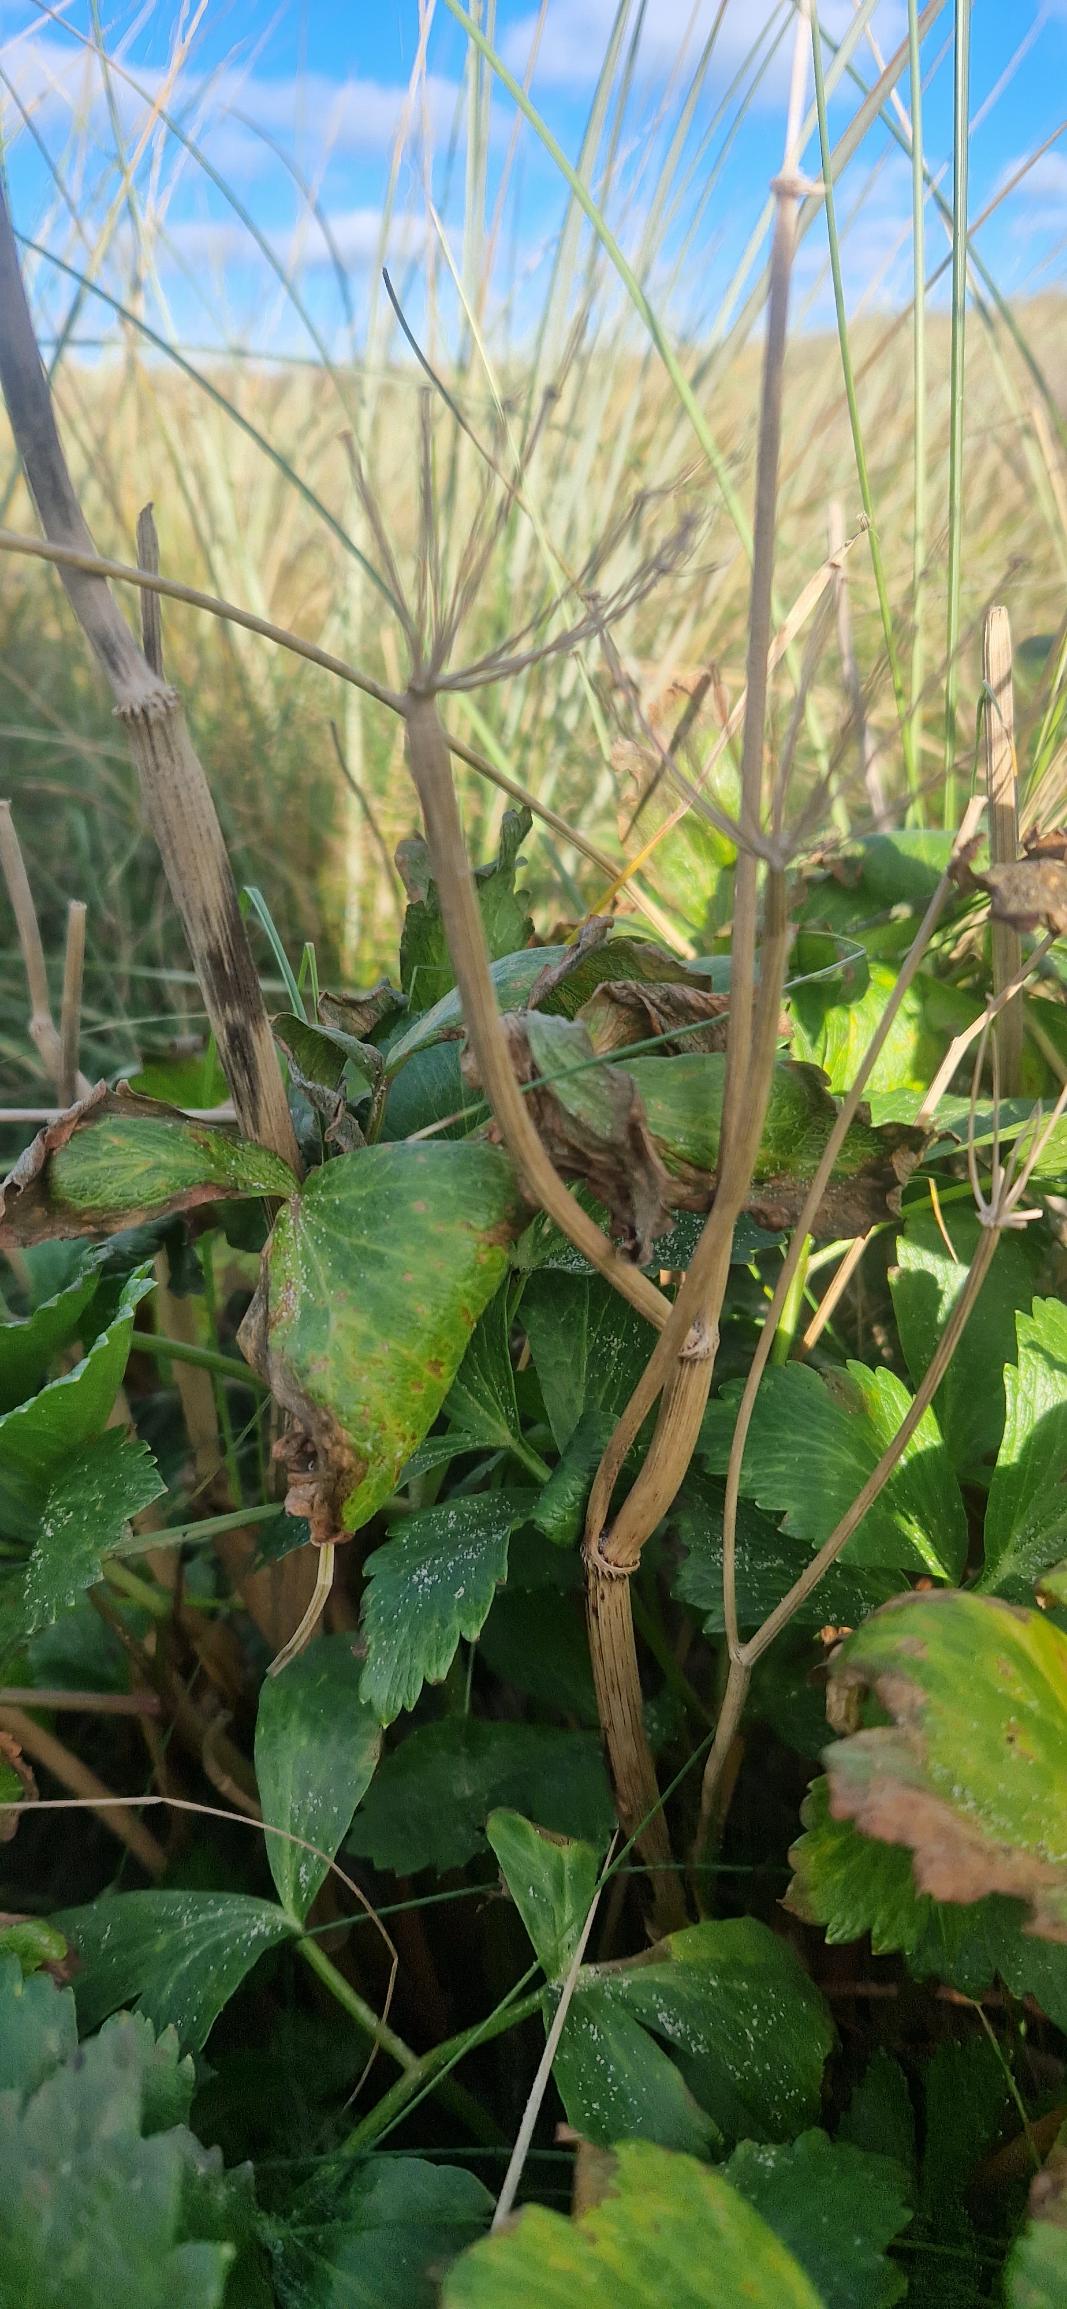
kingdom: Plantae
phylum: Tracheophyta
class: Magnoliopsida
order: Apiales
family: Apiaceae
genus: Ligusticum
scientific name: Ligusticum scothicum
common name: Skotsk lostilk
